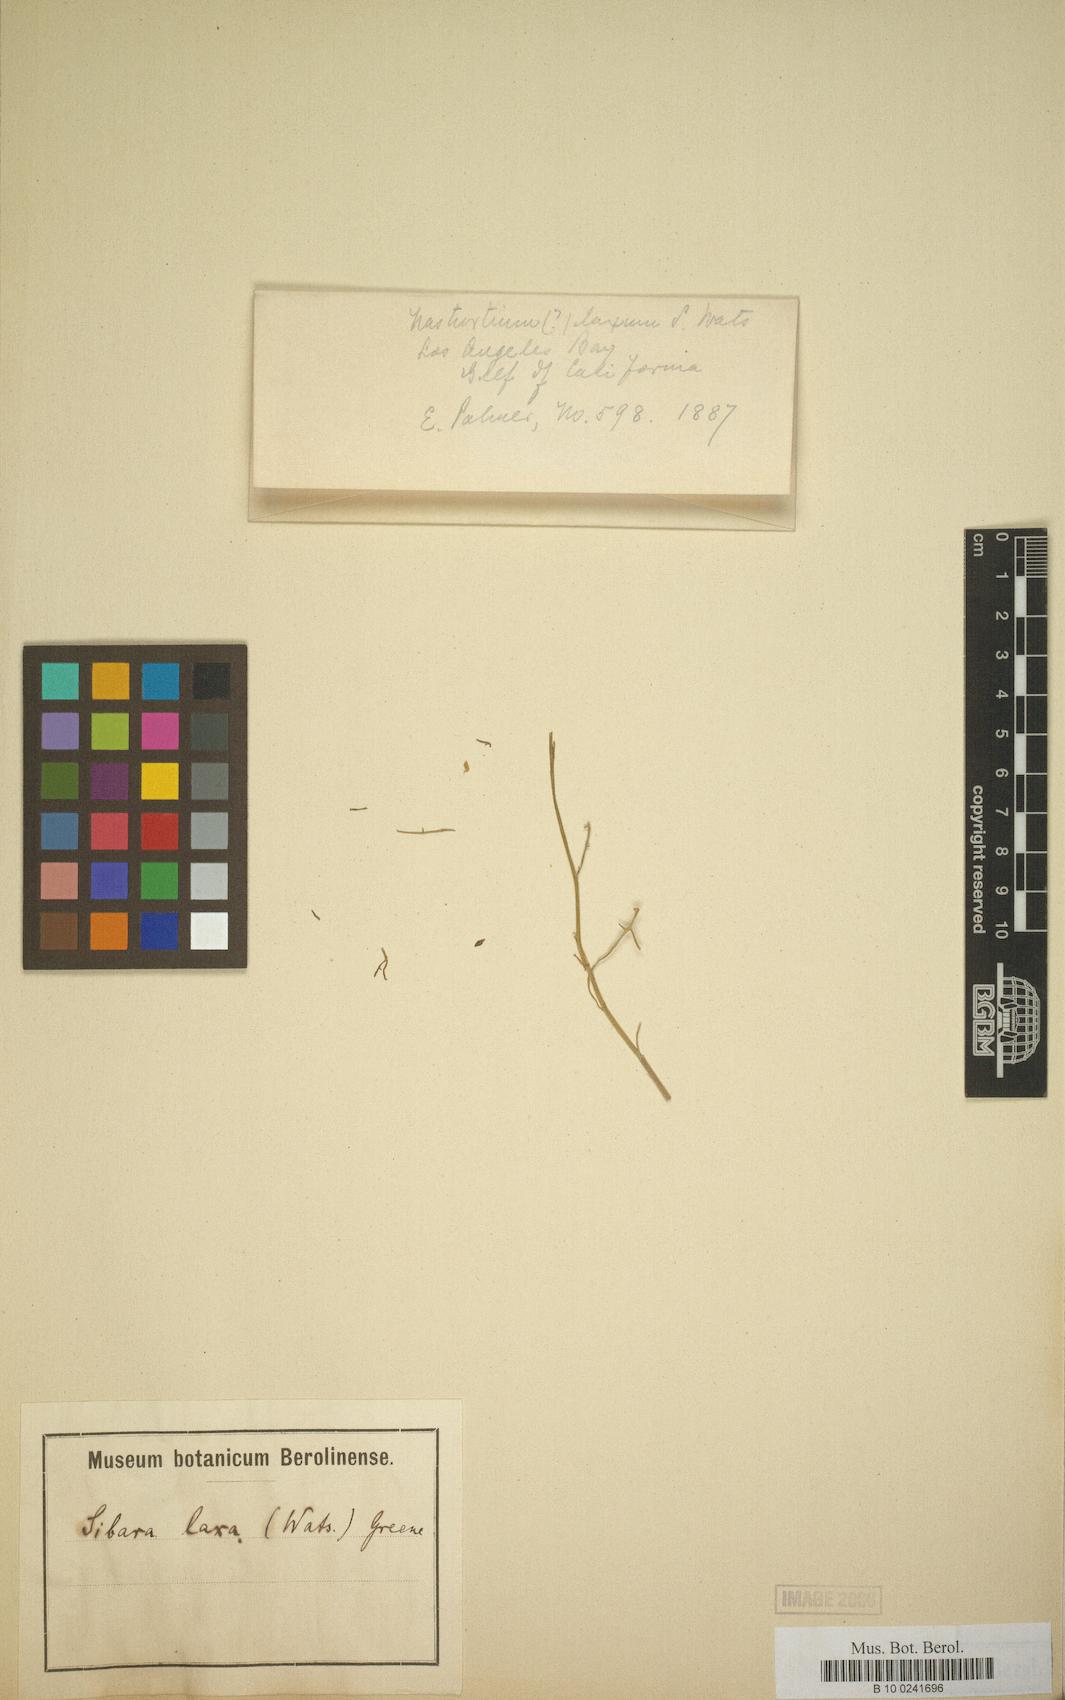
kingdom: Plantae
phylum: Tracheophyta
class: Magnoliopsida
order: Brassicales
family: Brassicaceae
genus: Sibara
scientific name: Sibara laxa
